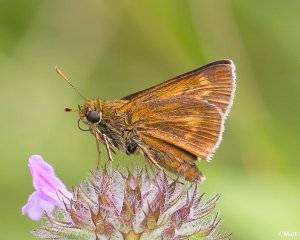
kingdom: Animalia
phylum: Arthropoda
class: Insecta
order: Lepidoptera
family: Hesperiidae
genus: Euphyes
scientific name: Euphyes conspicua
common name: Black Dash
